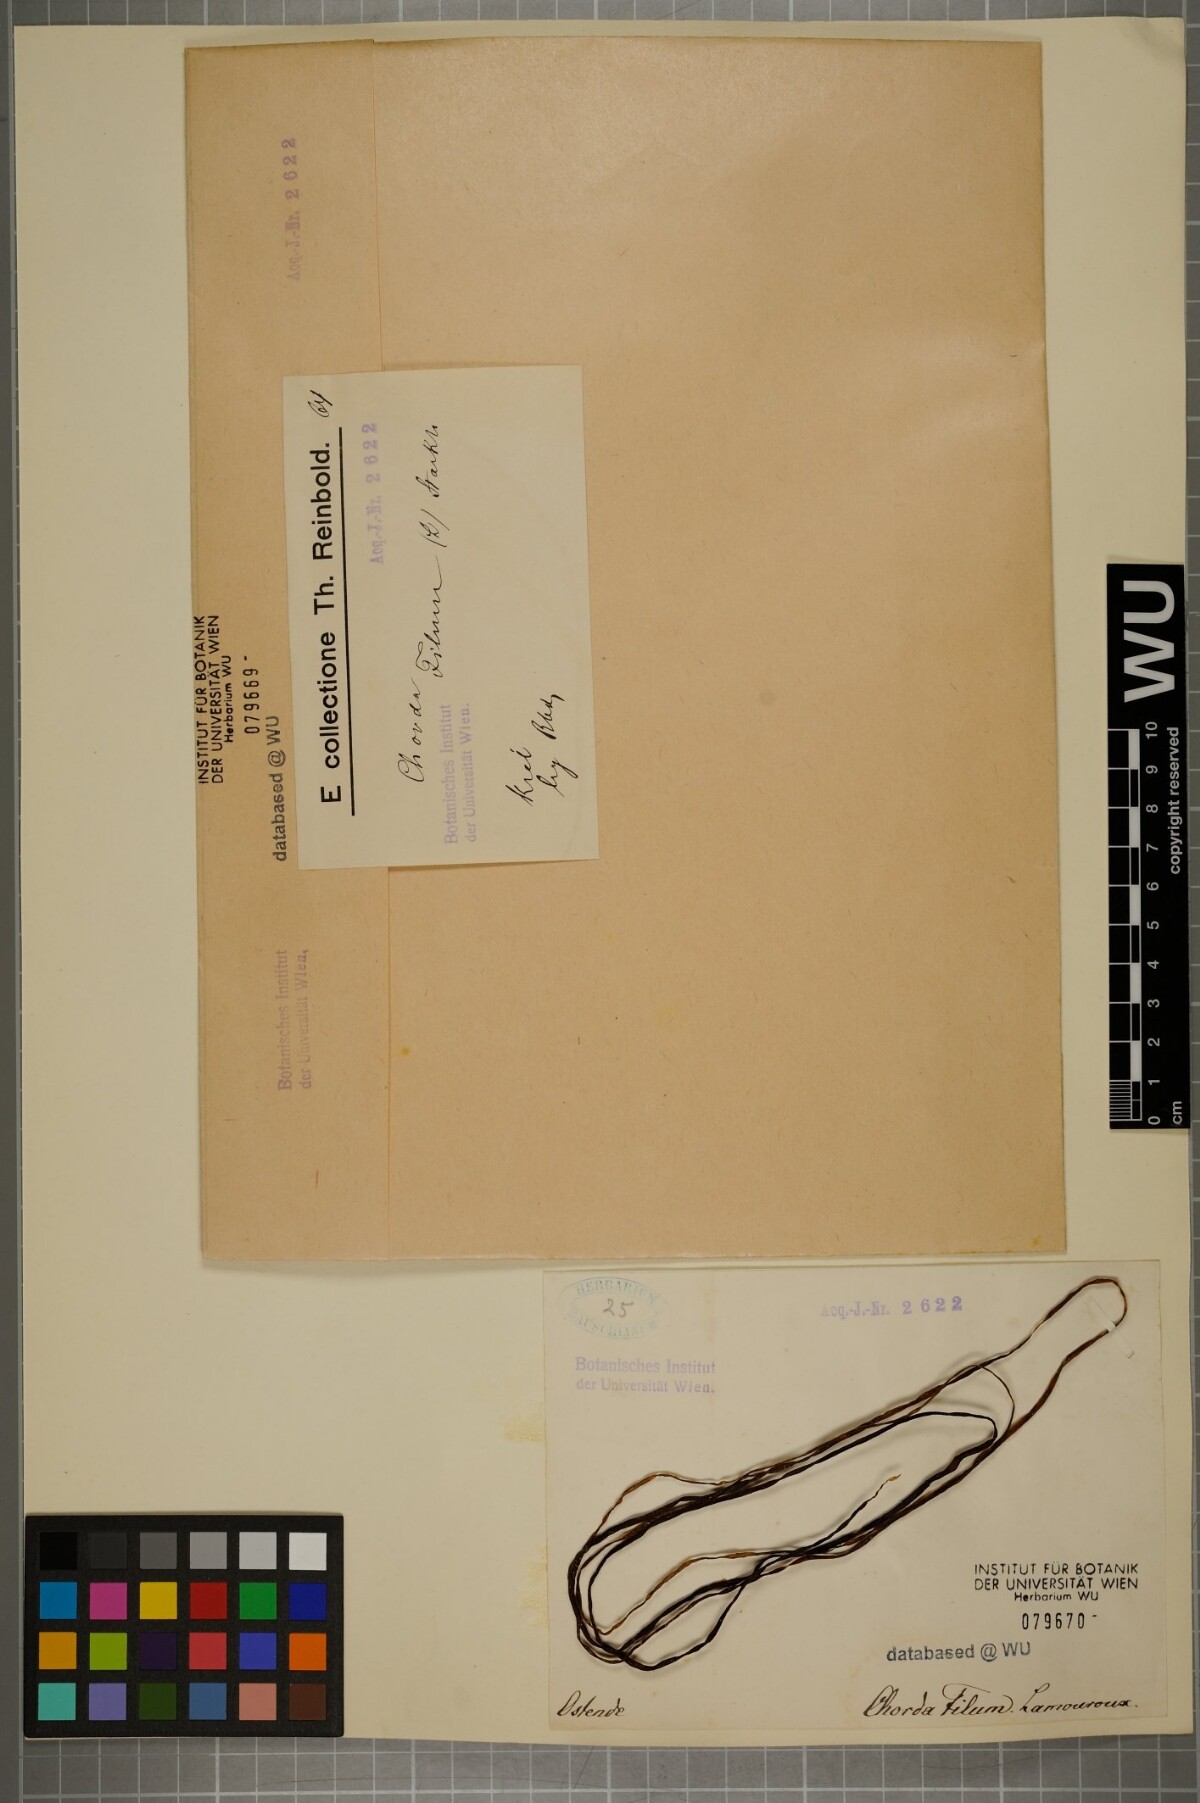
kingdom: Chromista
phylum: Ochrophyta
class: Phaeophyceae
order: Laminariales
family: Chordaceae
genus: Chorda
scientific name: Chorda filum
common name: Mermaid's tresses
